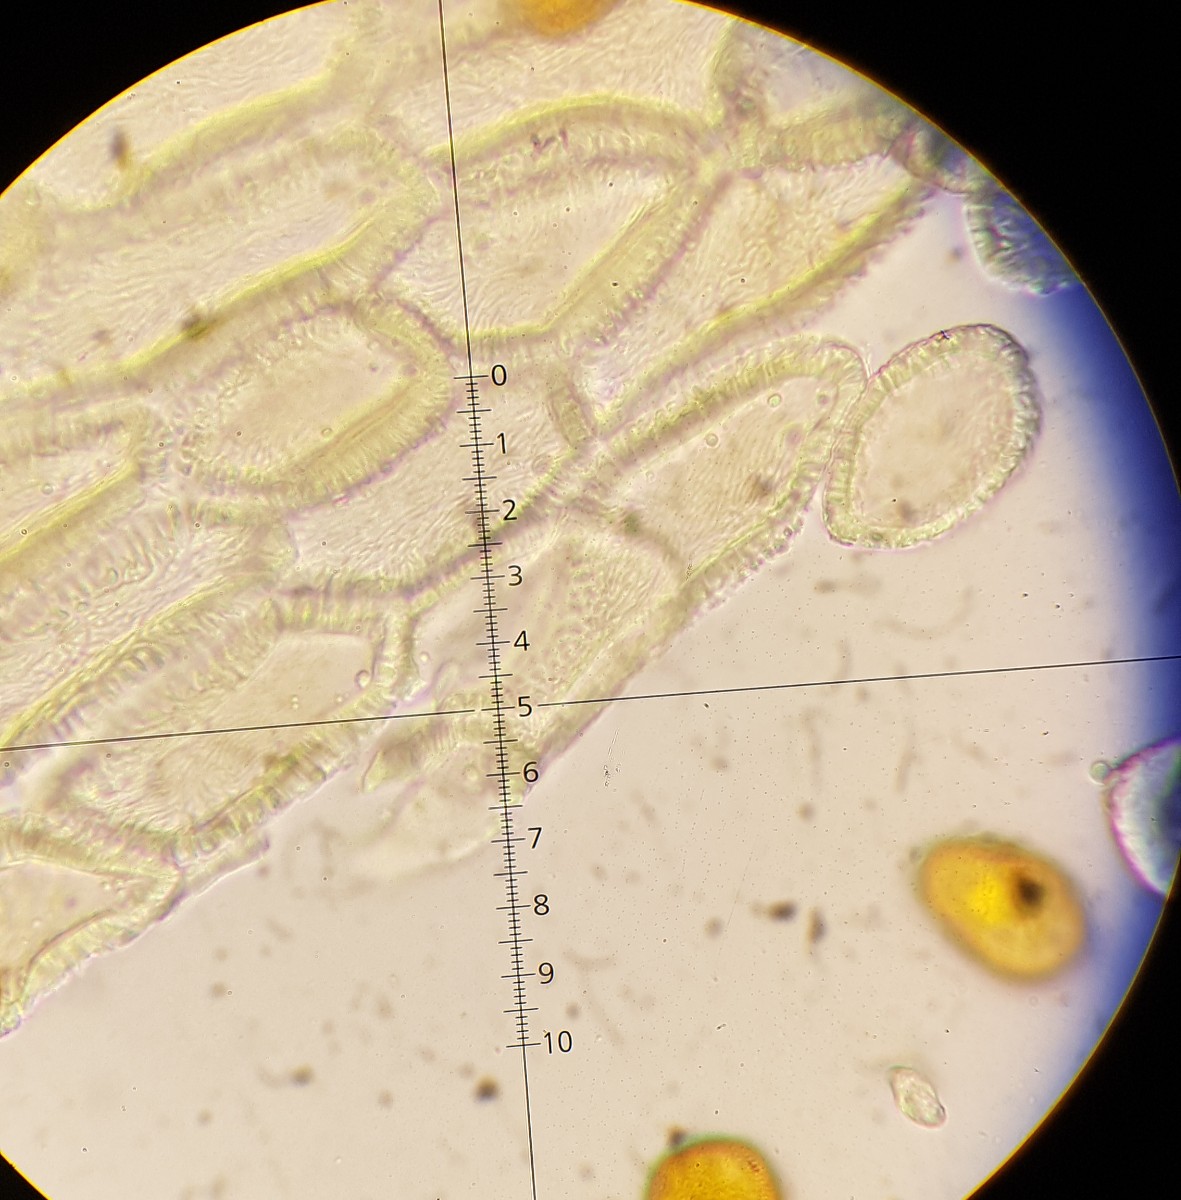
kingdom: Fungi
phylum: Basidiomycota
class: Pucciniomycetes
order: Pucciniales
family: Gymnosporangiaceae
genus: Gymnosporangium
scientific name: Gymnosporangium confusum
